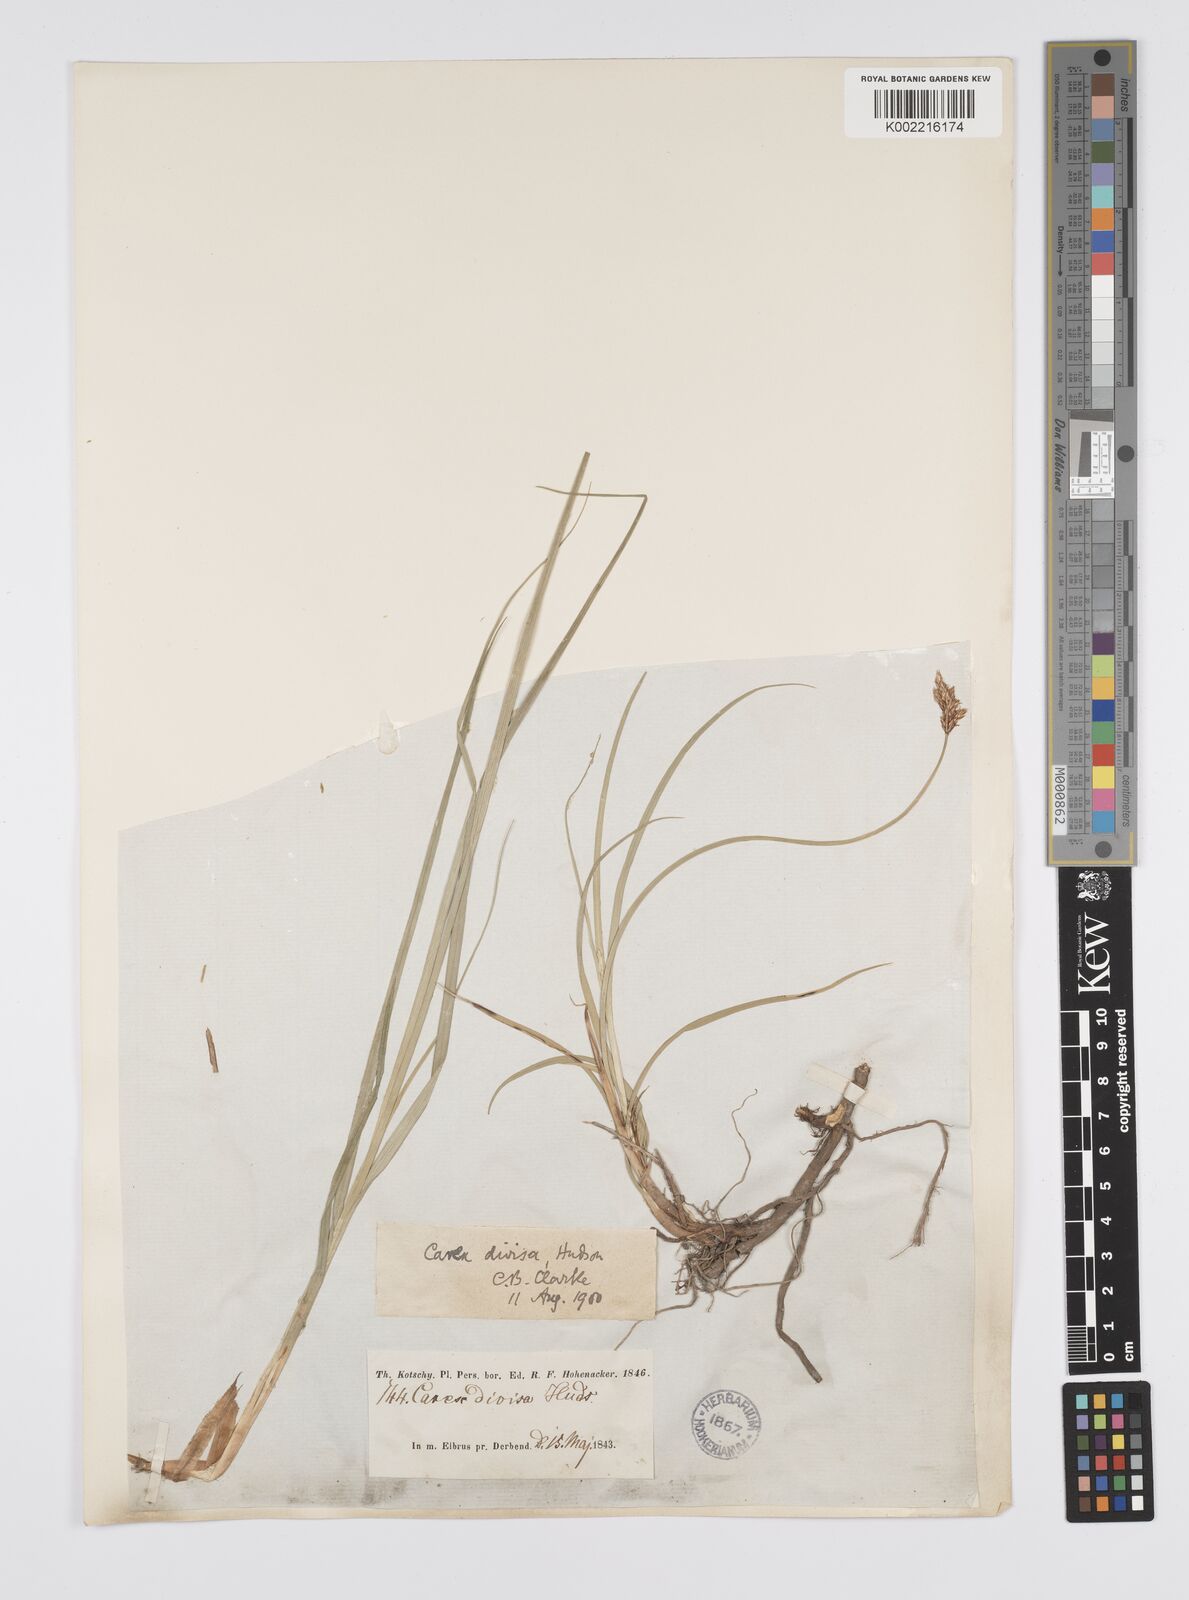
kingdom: Plantae
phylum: Tracheophyta
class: Liliopsida
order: Poales
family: Cyperaceae
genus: Carex
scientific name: Carex divisa
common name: Divided sedge
